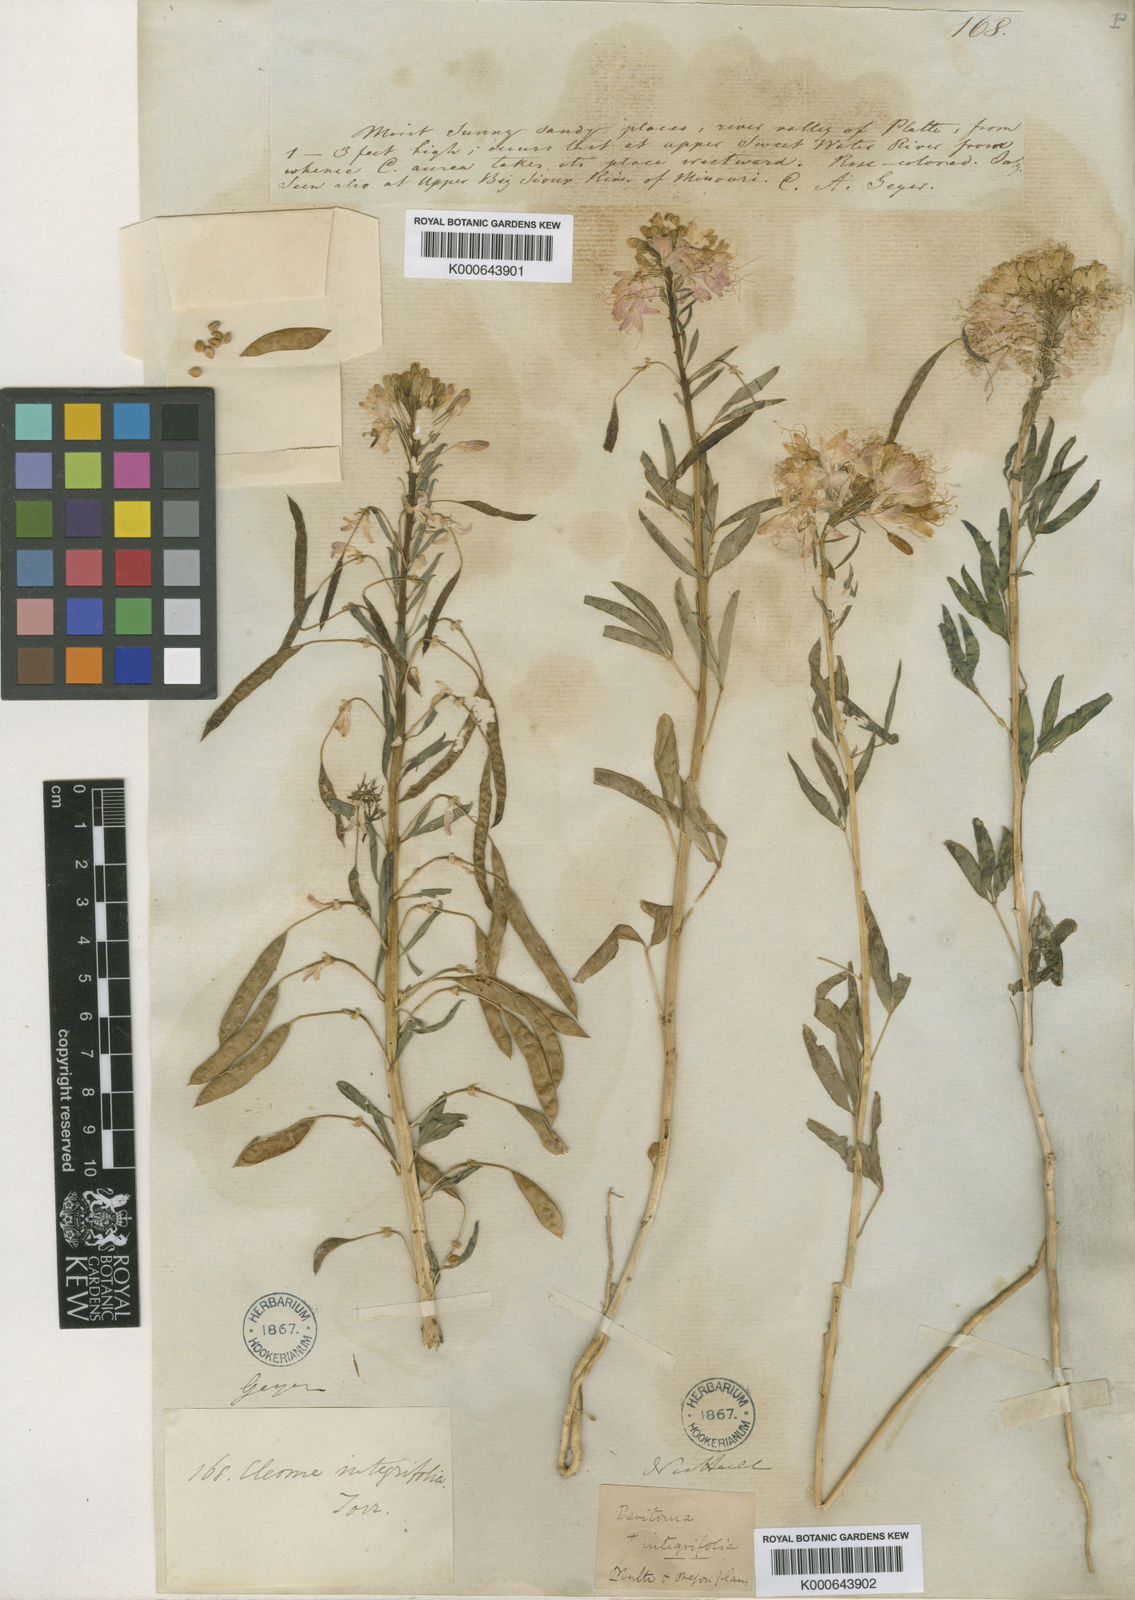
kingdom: Plantae
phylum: Tracheophyta
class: Magnoliopsida
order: Brassicales
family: Cleomaceae
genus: Cleomella
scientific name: Cleomella serrulata
